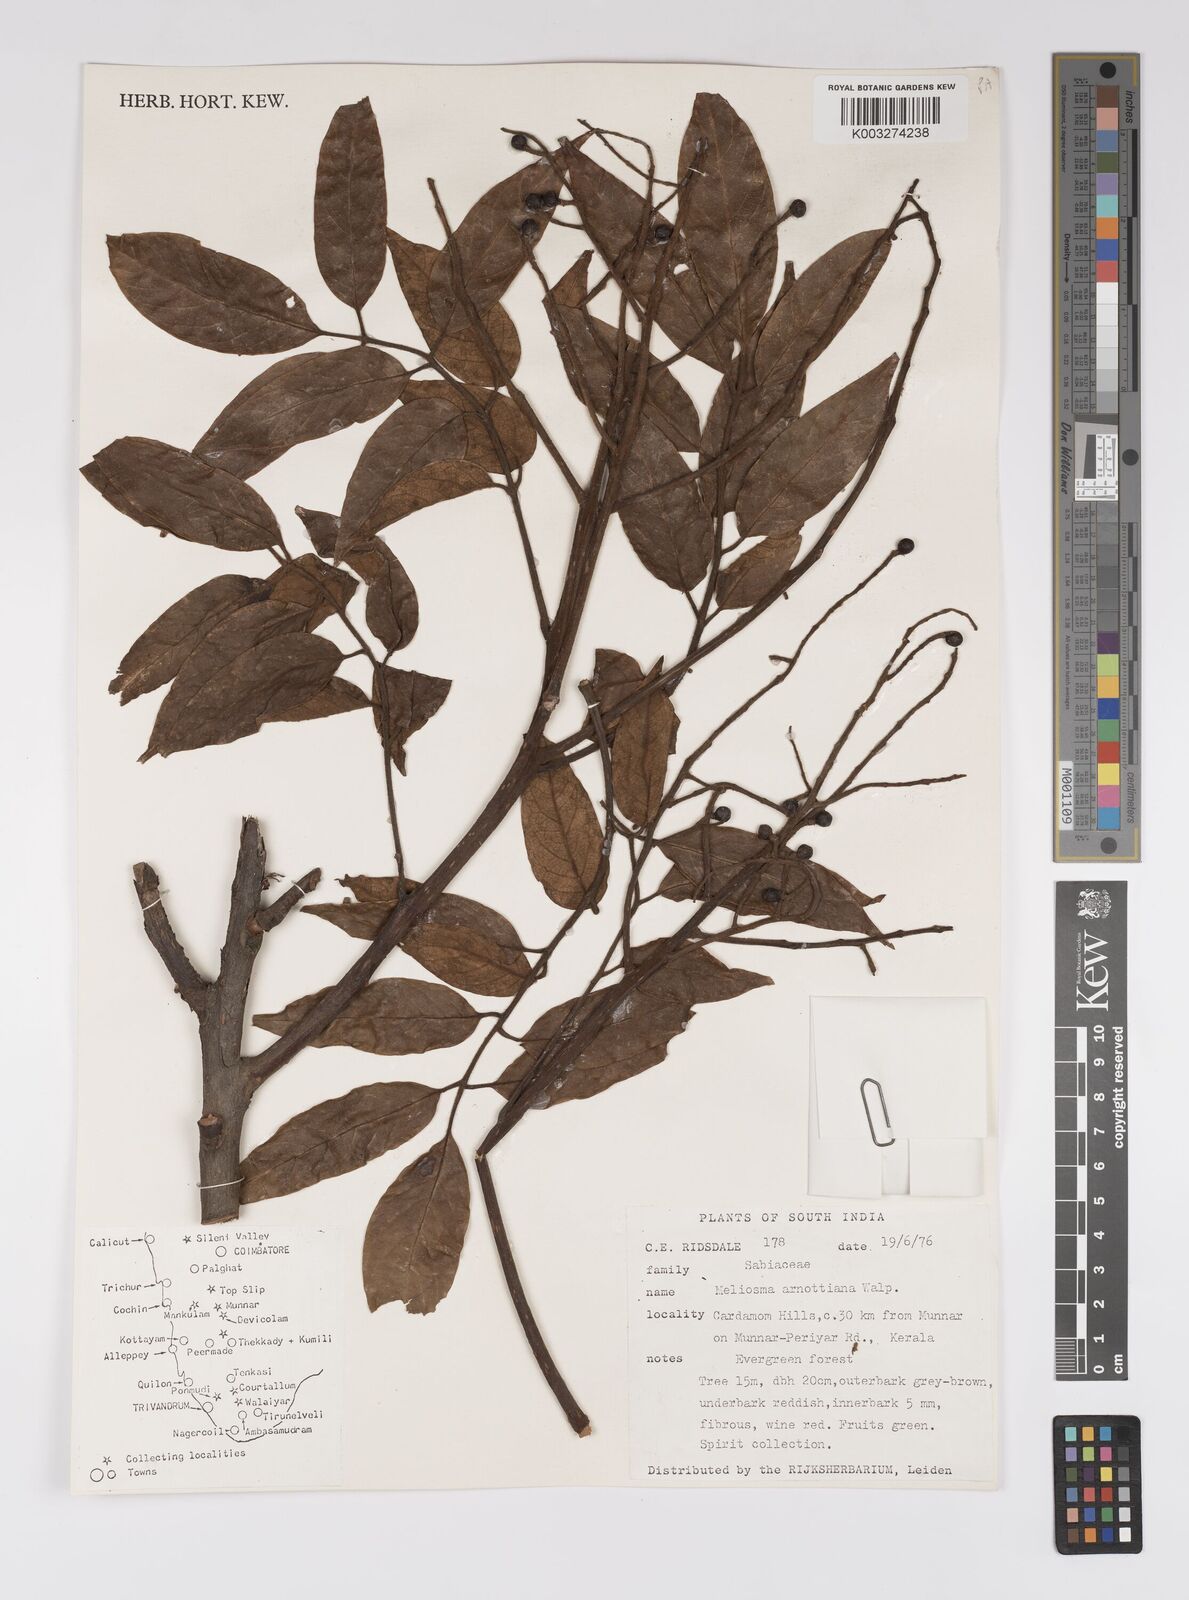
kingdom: Plantae
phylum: Tracheophyta
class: Magnoliopsida
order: Proteales
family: Sabiaceae
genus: Meliosma
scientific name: Meliosma rhoifolia
